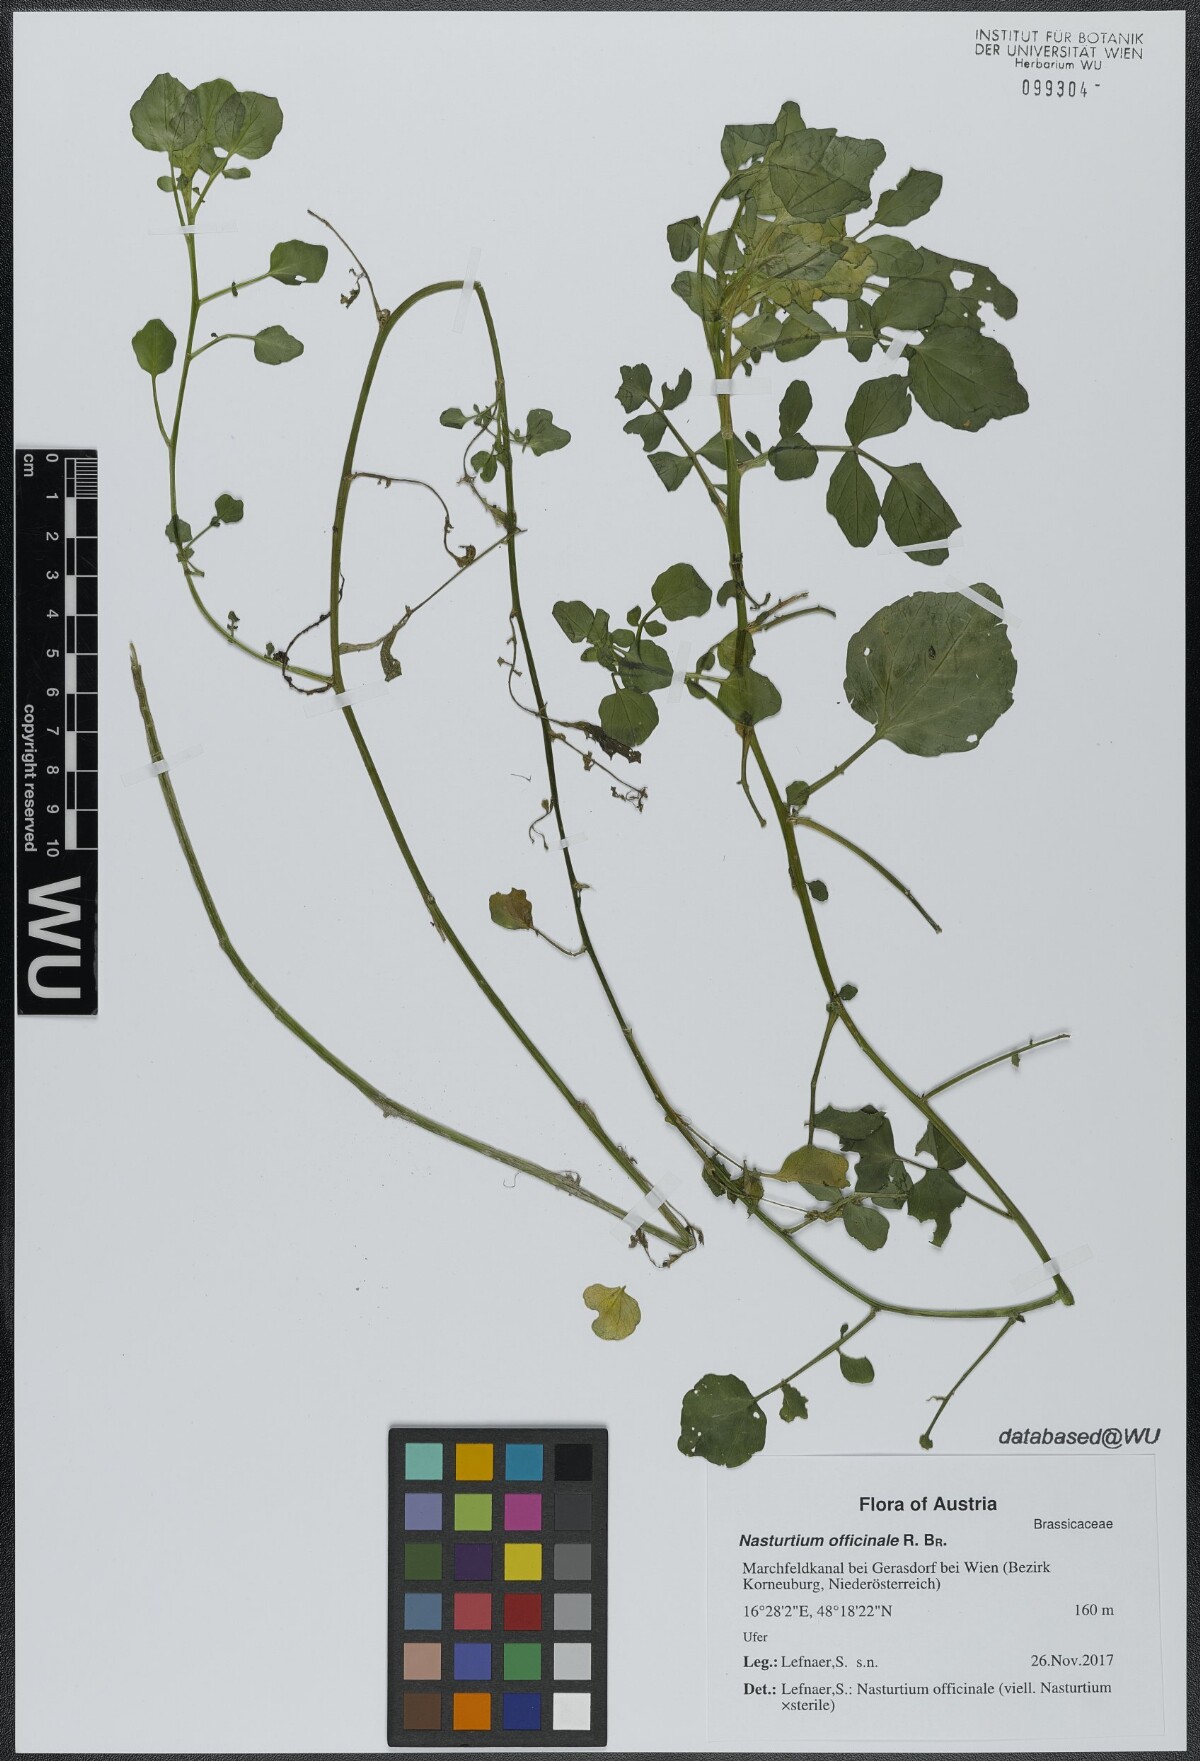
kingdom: Plantae
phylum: Tracheophyta
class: Magnoliopsida
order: Brassicales
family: Brassicaceae
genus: Nasturtium
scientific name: Nasturtium officinale
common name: Watercress
